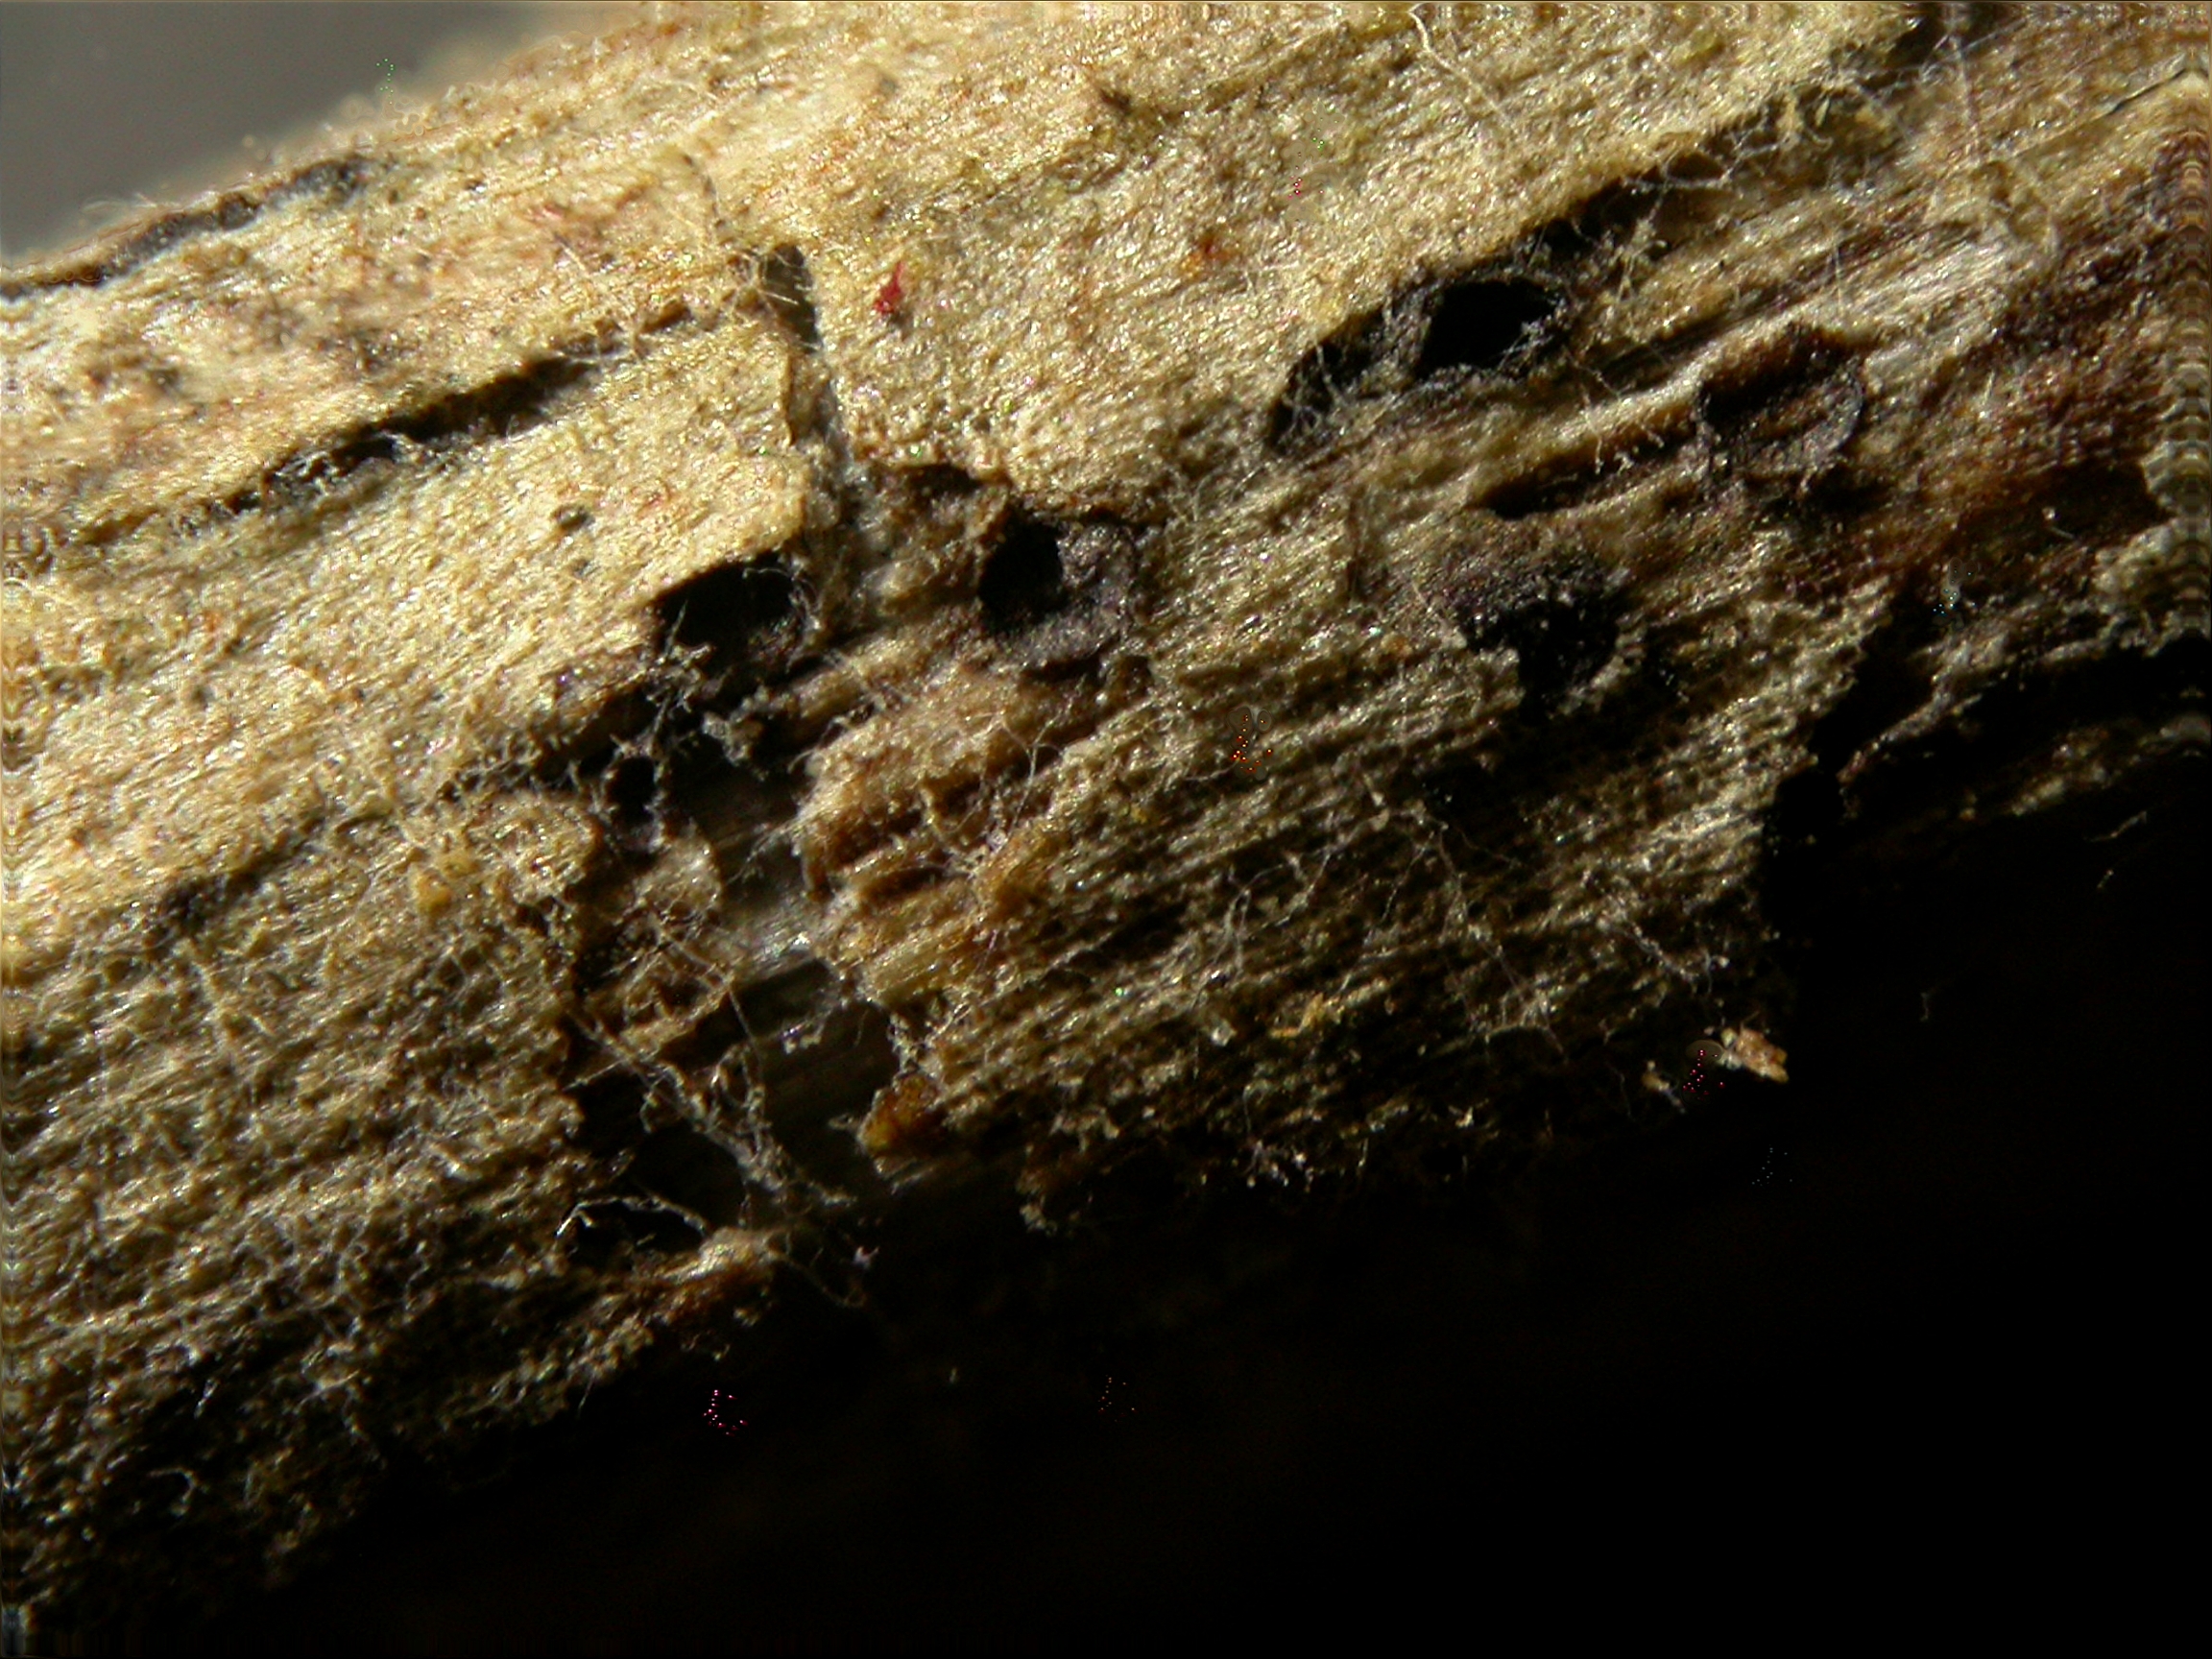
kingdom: Fungi
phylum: Ascomycota
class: Dothideomycetes
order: Dothideales
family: Saccotheciaceae
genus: Metasphaeria
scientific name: Metasphaeria vulgaris
